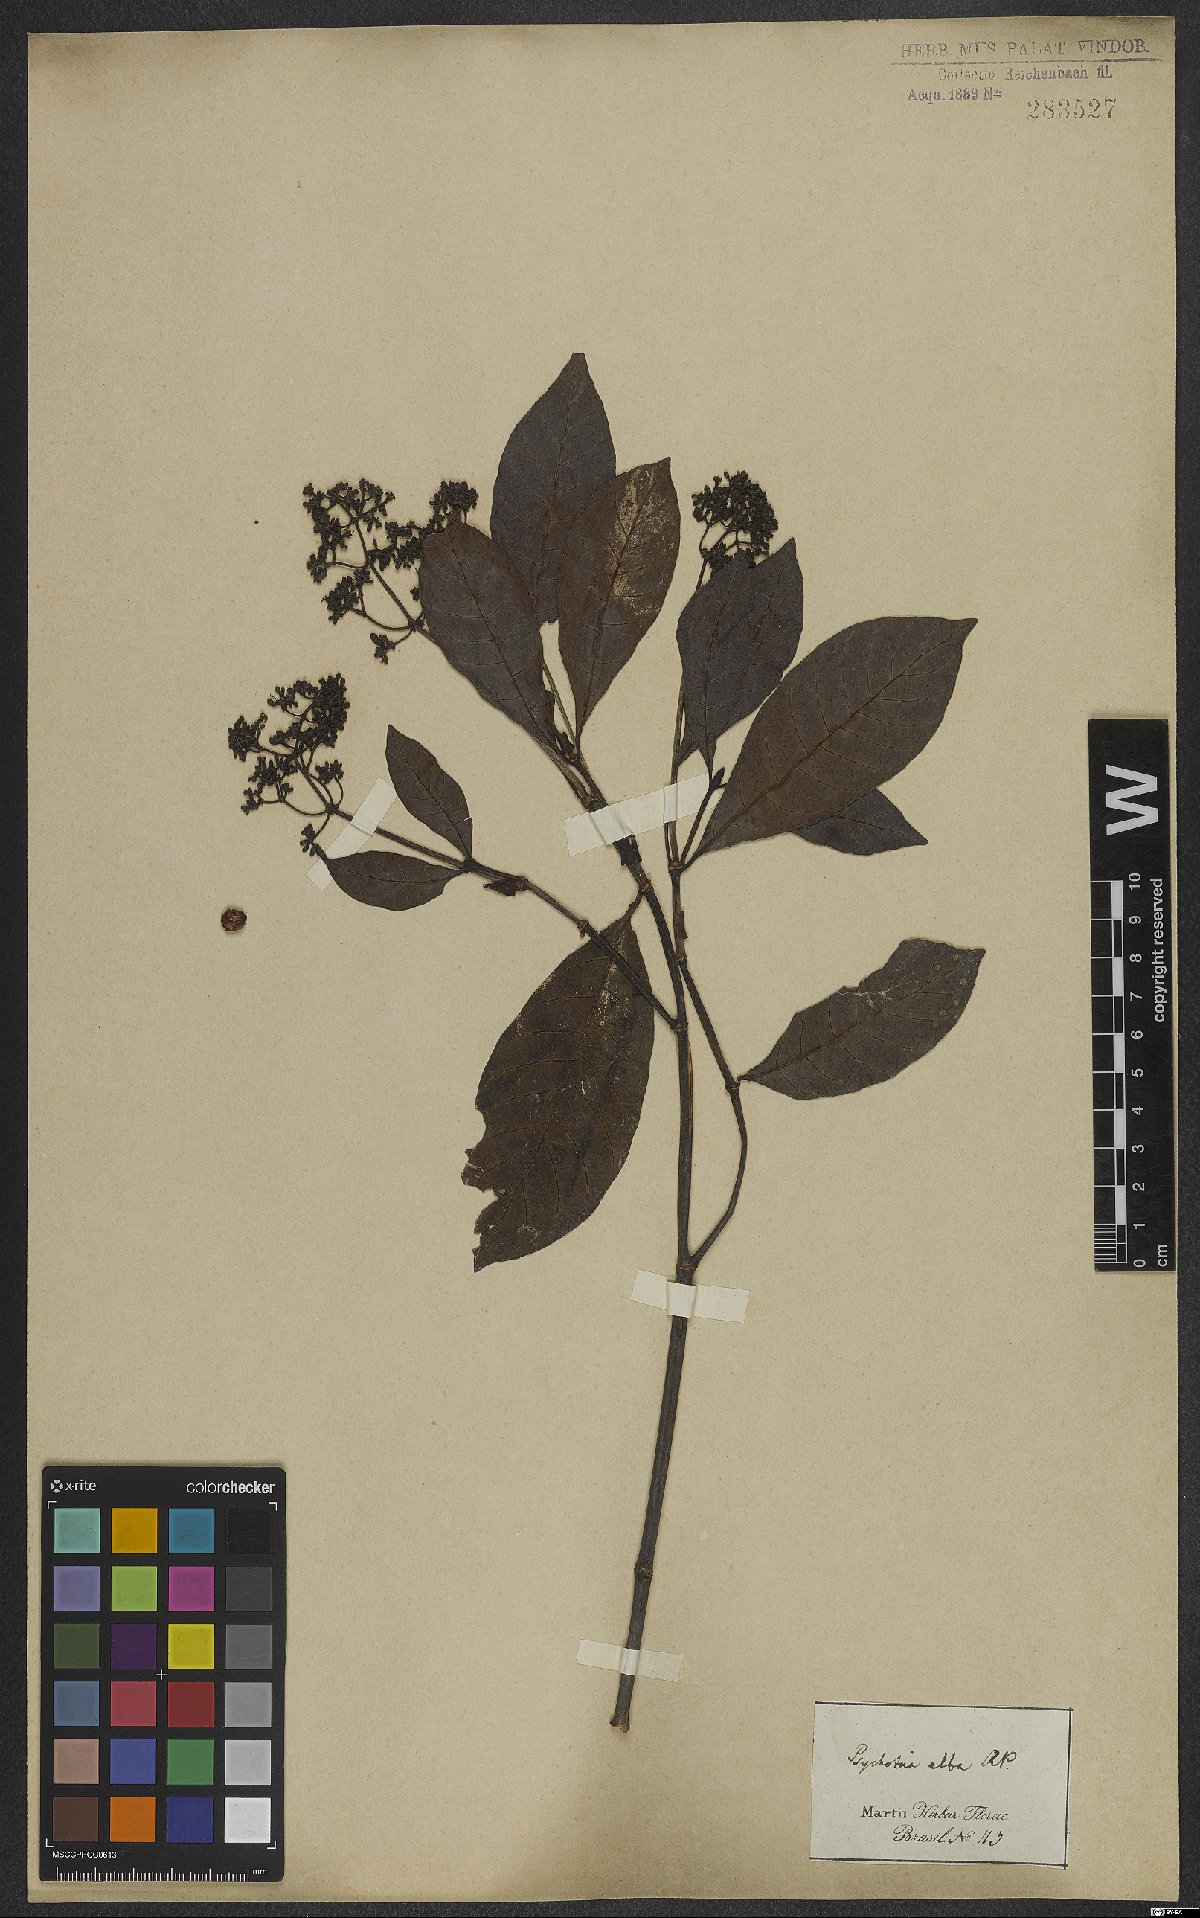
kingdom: Plantae
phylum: Tracheophyta
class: Magnoliopsida
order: Gentianales
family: Rubiaceae
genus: Psychotria
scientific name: Psychotria alba
